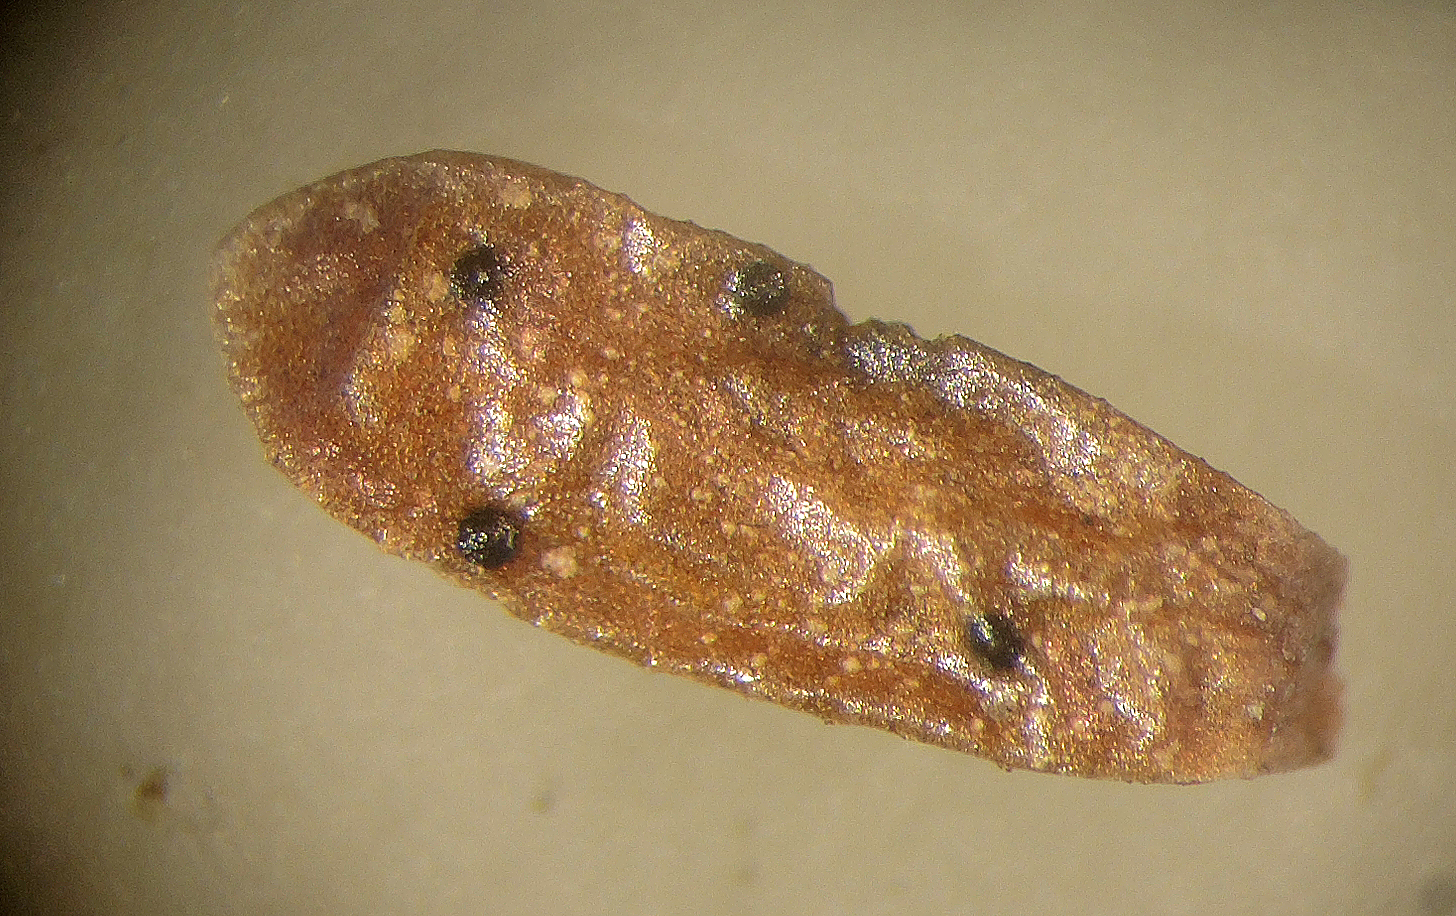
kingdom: Fungi
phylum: Ascomycota
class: Leotiomycetes
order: Helotiales
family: Dermateaceae
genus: Coleophoma
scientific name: Coleophoma empetri
